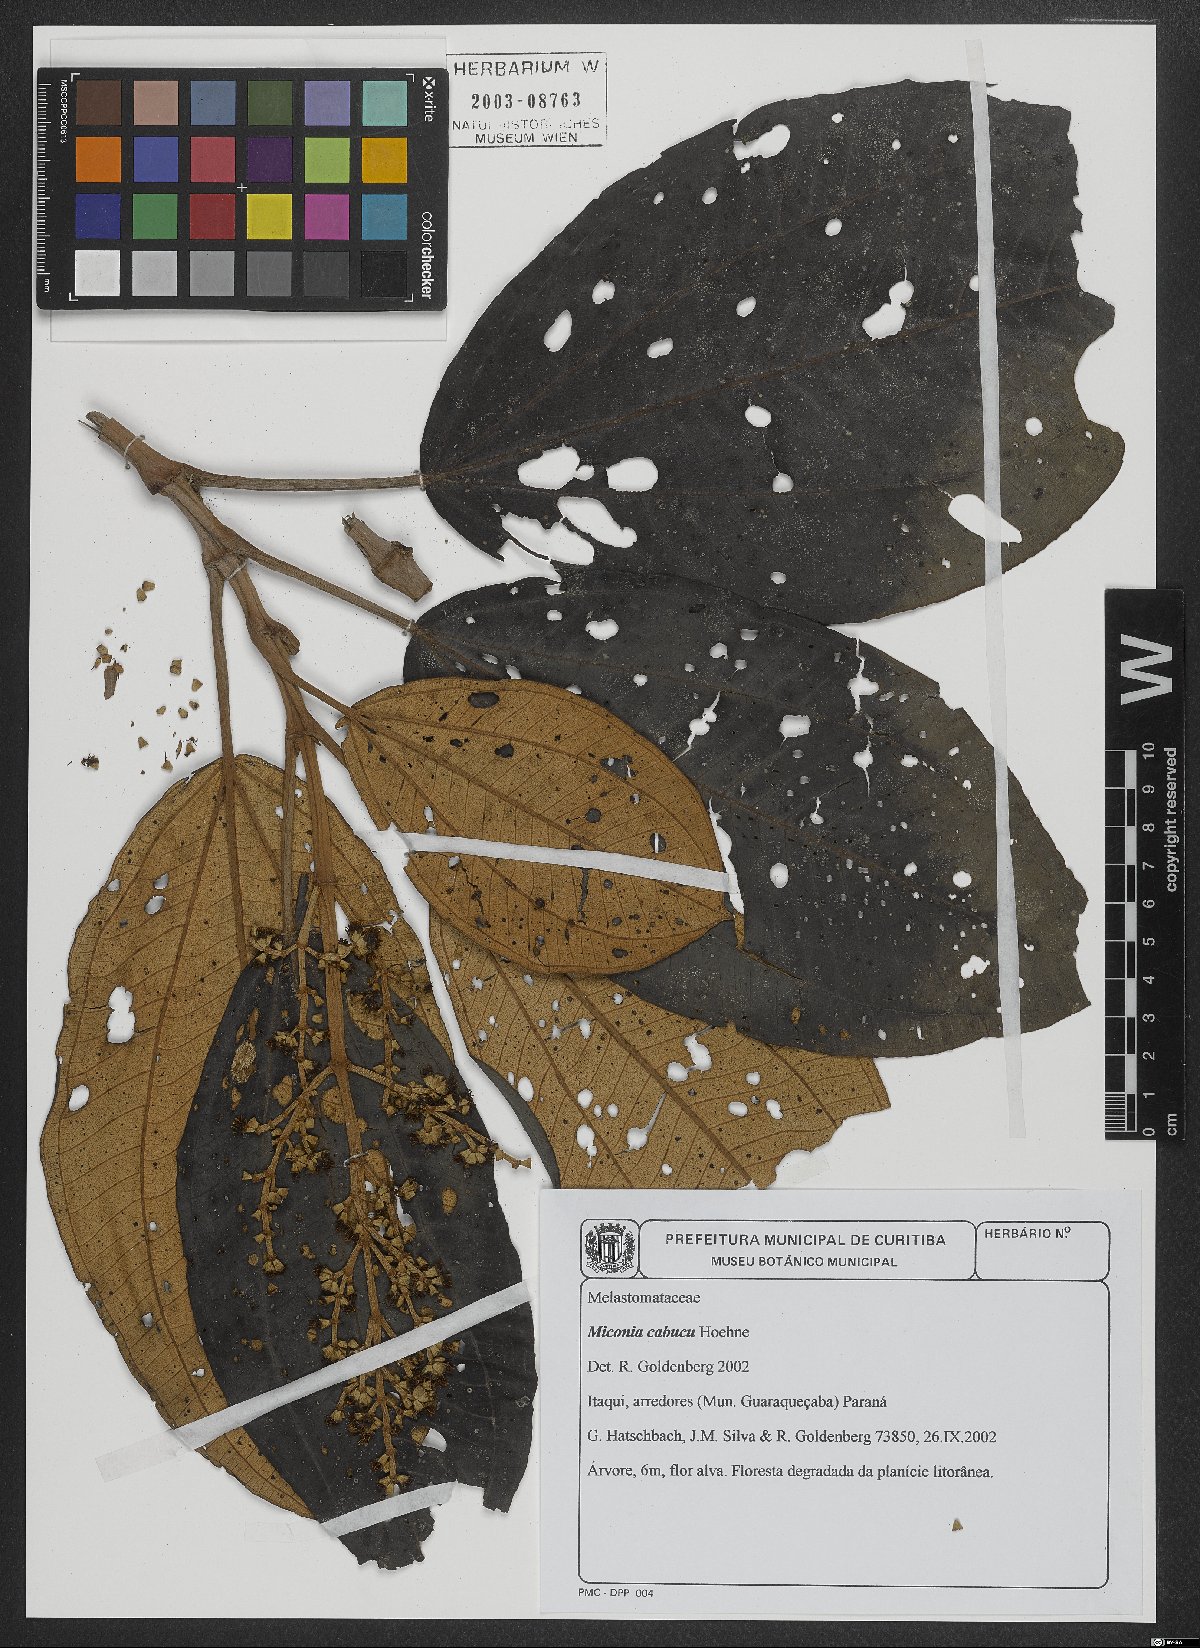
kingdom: Plantae
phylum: Tracheophyta
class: Magnoliopsida
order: Myrtales
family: Melastomataceae
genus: Miconia
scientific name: Miconia cabucu
